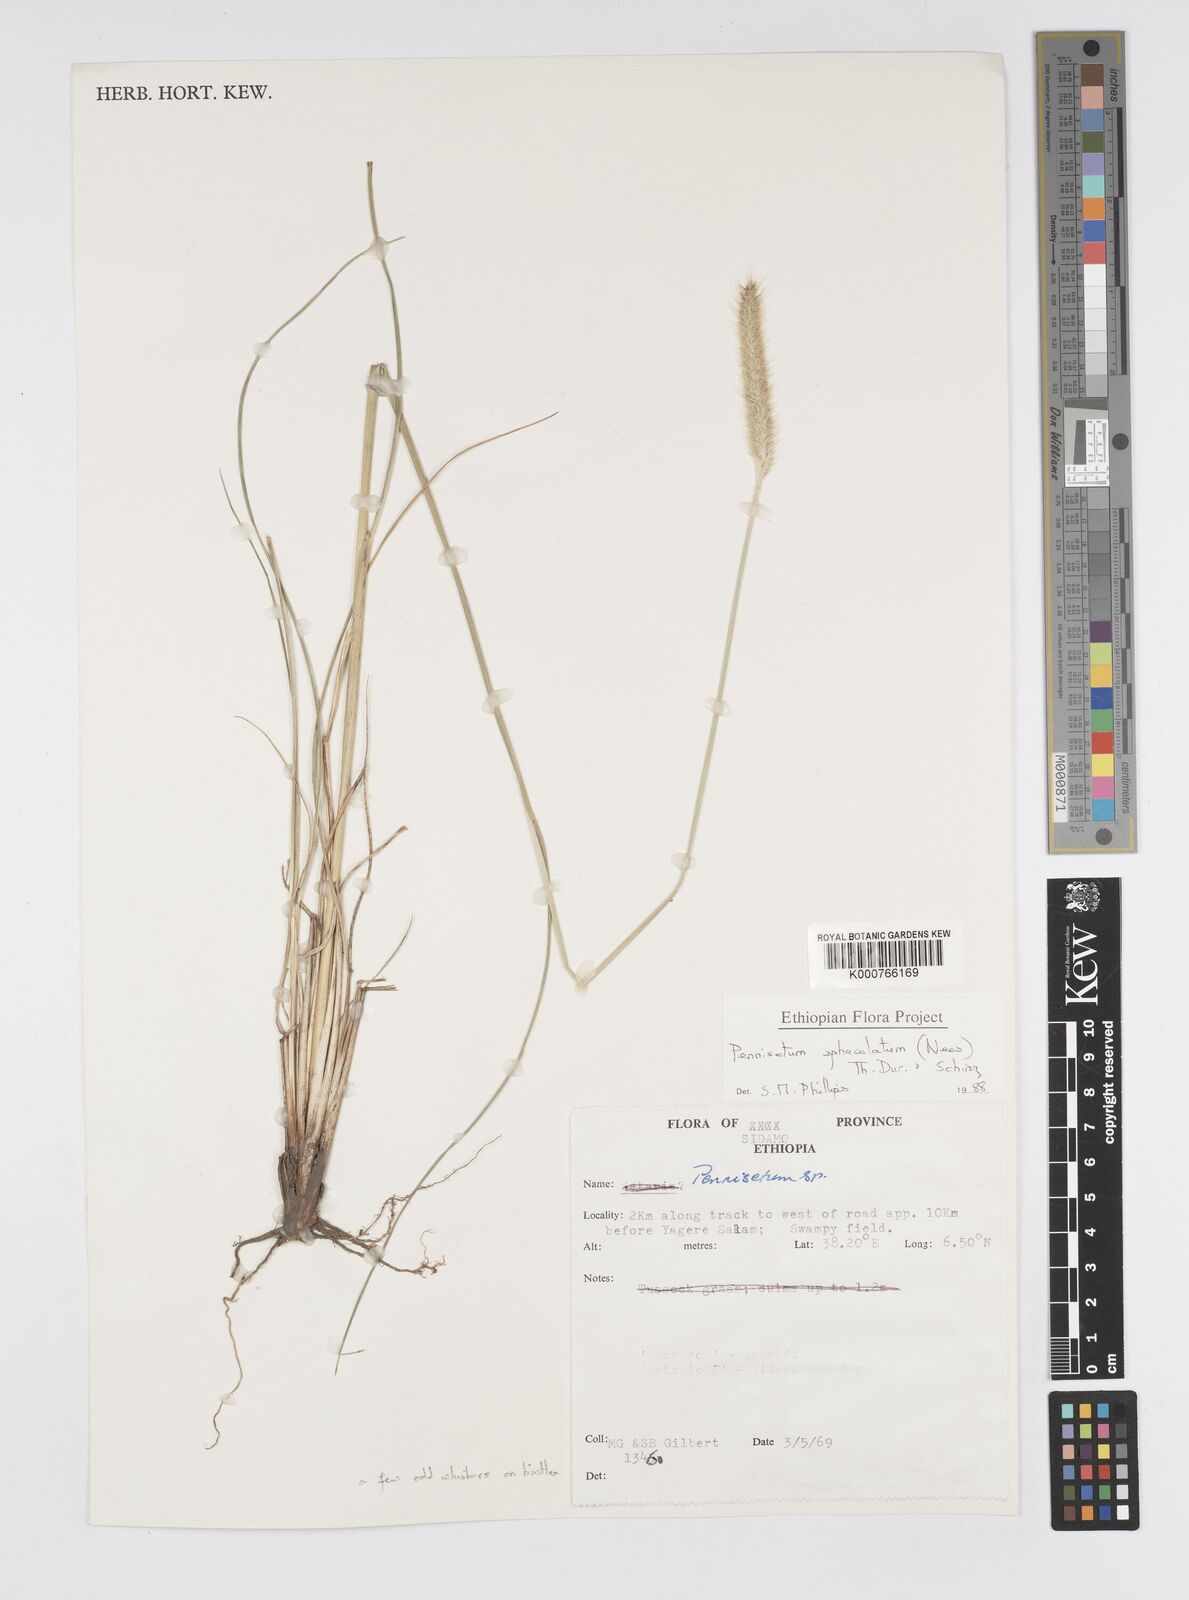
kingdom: Plantae
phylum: Tracheophyta
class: Liliopsida
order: Poales
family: Poaceae
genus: Cenchrus
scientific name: Cenchrus sphacelatus
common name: Bulgras
